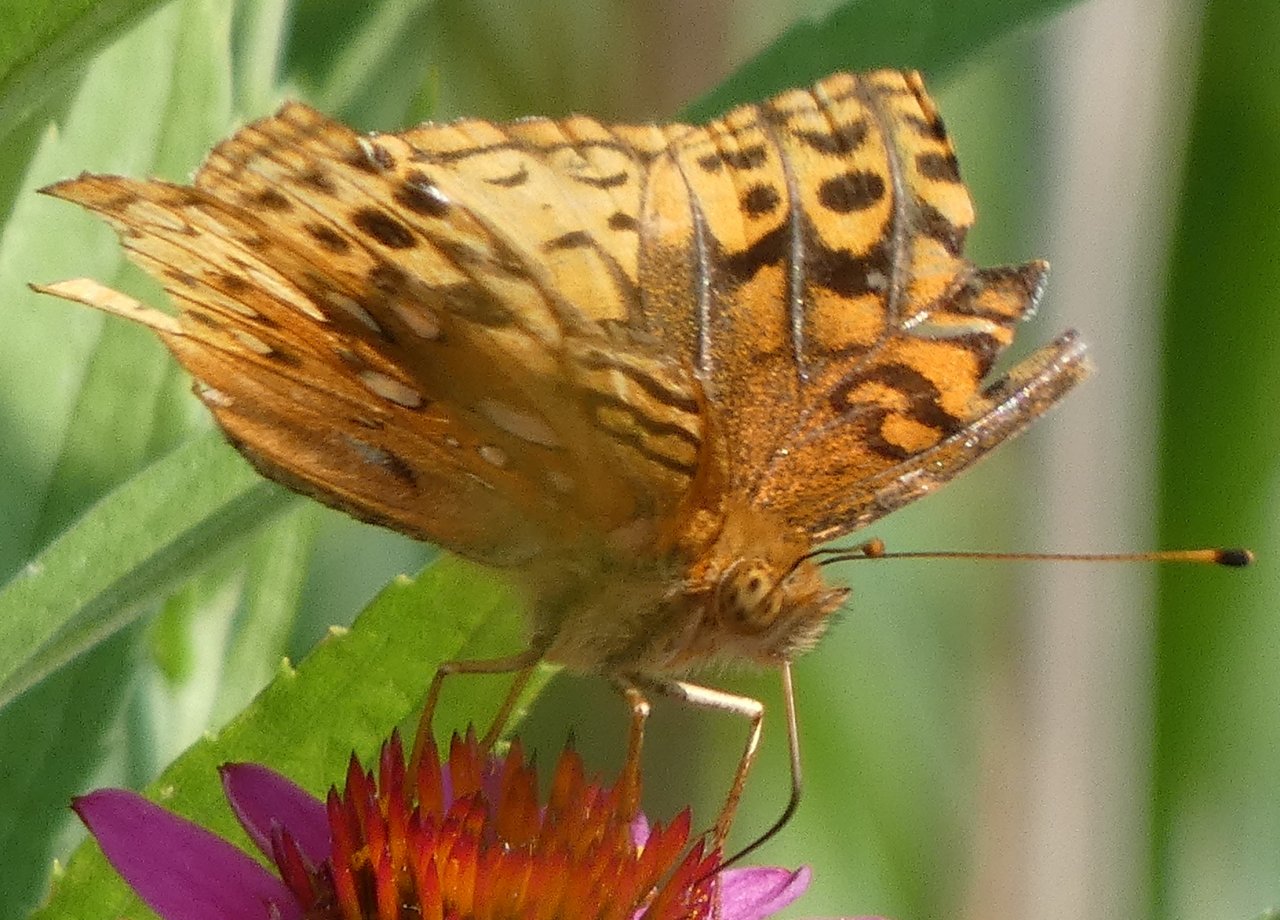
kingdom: Animalia
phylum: Arthropoda
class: Insecta
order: Lepidoptera
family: Nymphalidae
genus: Speyeria
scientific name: Speyeria cybele
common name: Great Spangled Fritillary
